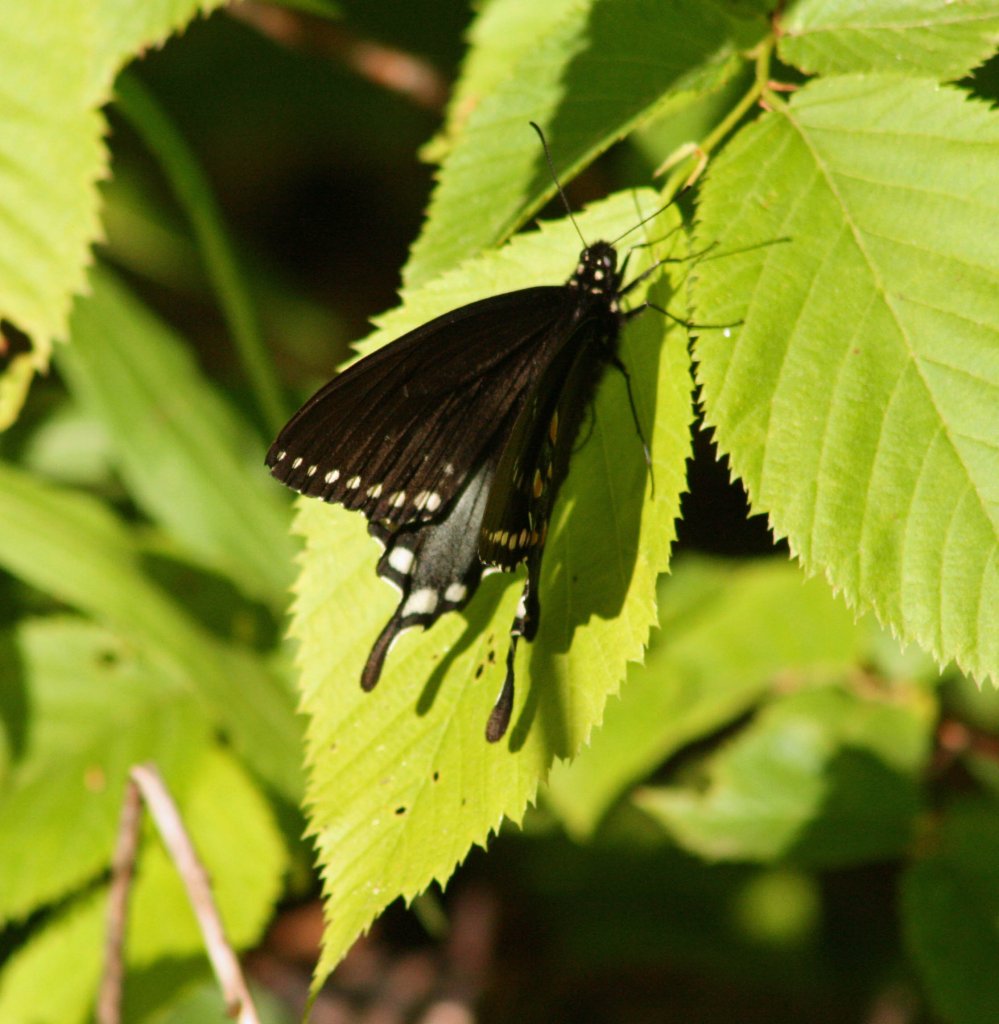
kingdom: Animalia
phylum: Arthropoda
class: Insecta
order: Lepidoptera
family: Papilionidae
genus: Pterourus
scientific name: Pterourus troilus
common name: Spicebush Swallowtail
